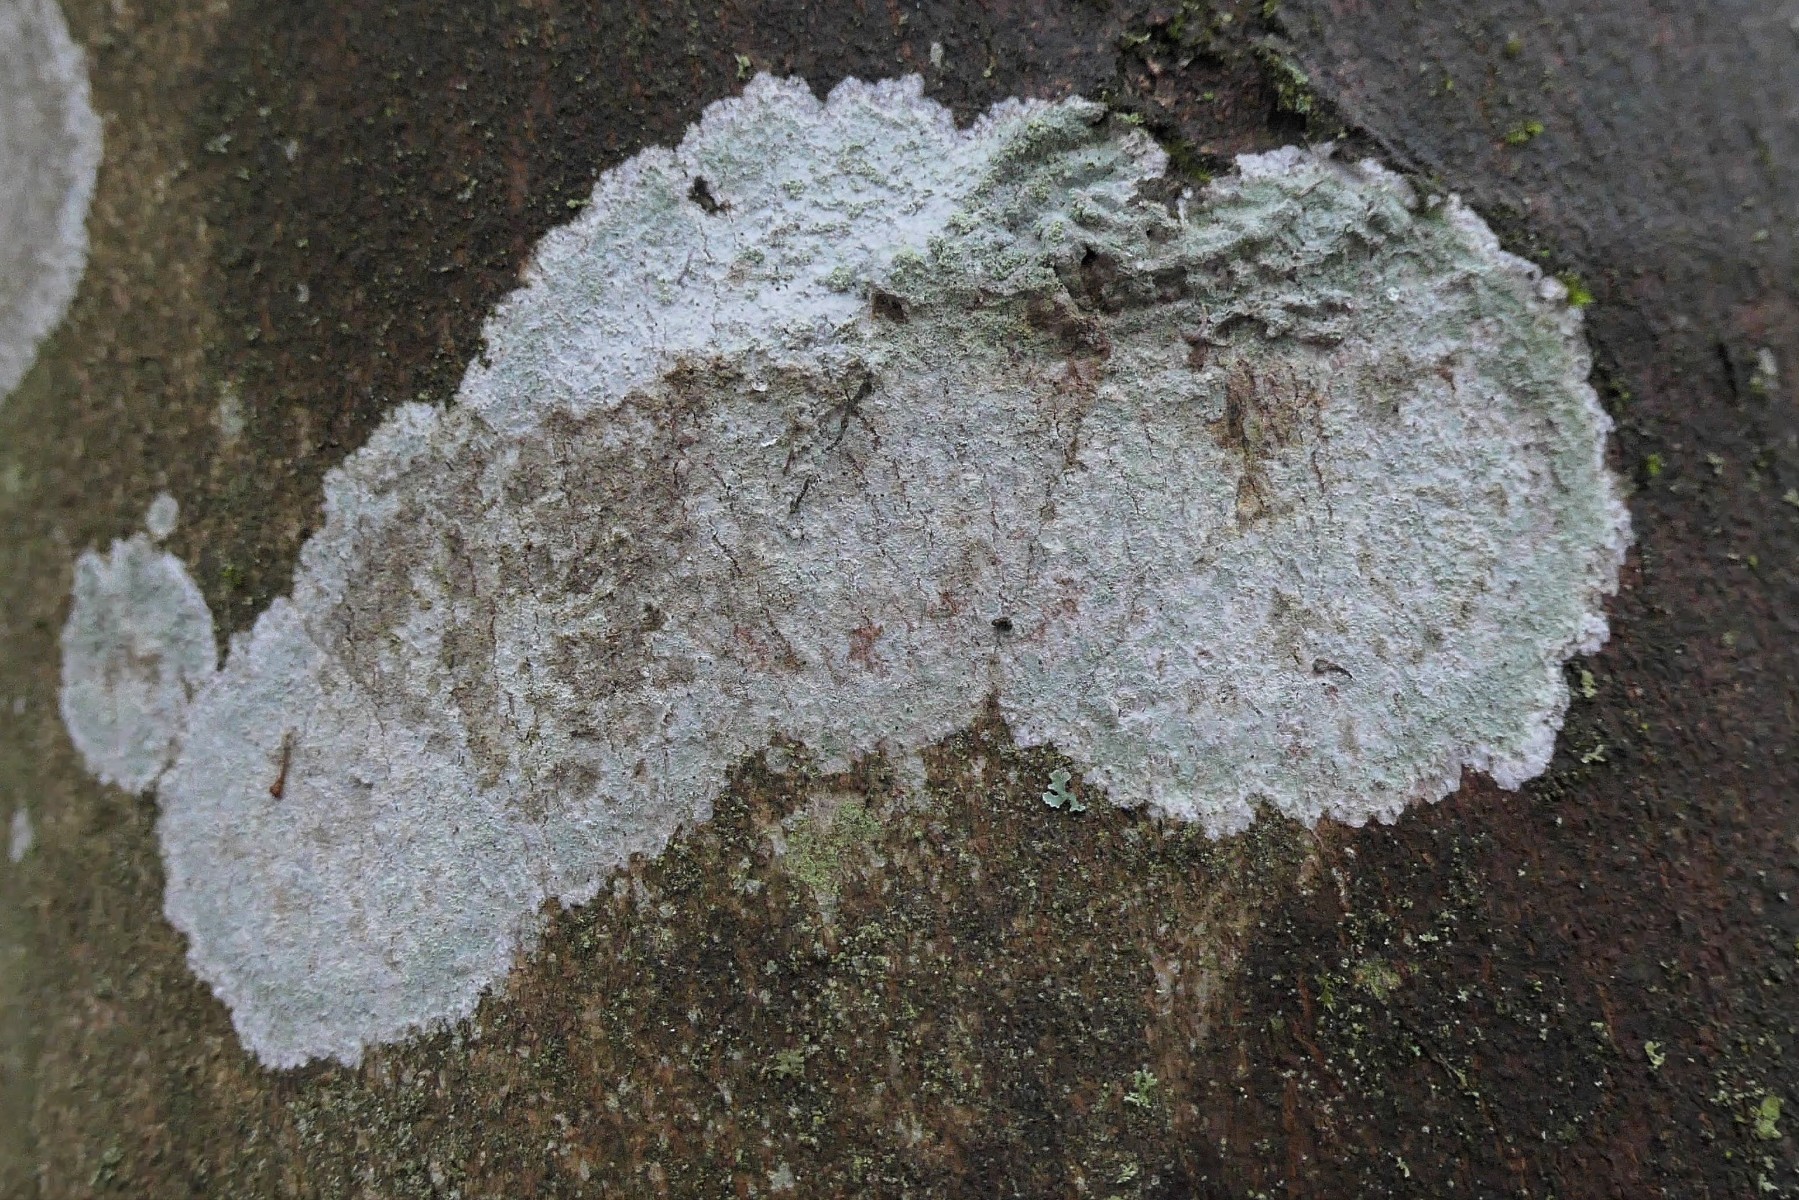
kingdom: Fungi
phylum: Ascomycota
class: Lecanoromycetes
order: Ostropales
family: Phlyctidaceae
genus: Phlyctis
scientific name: Phlyctis argena
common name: almindelig sølvlav
